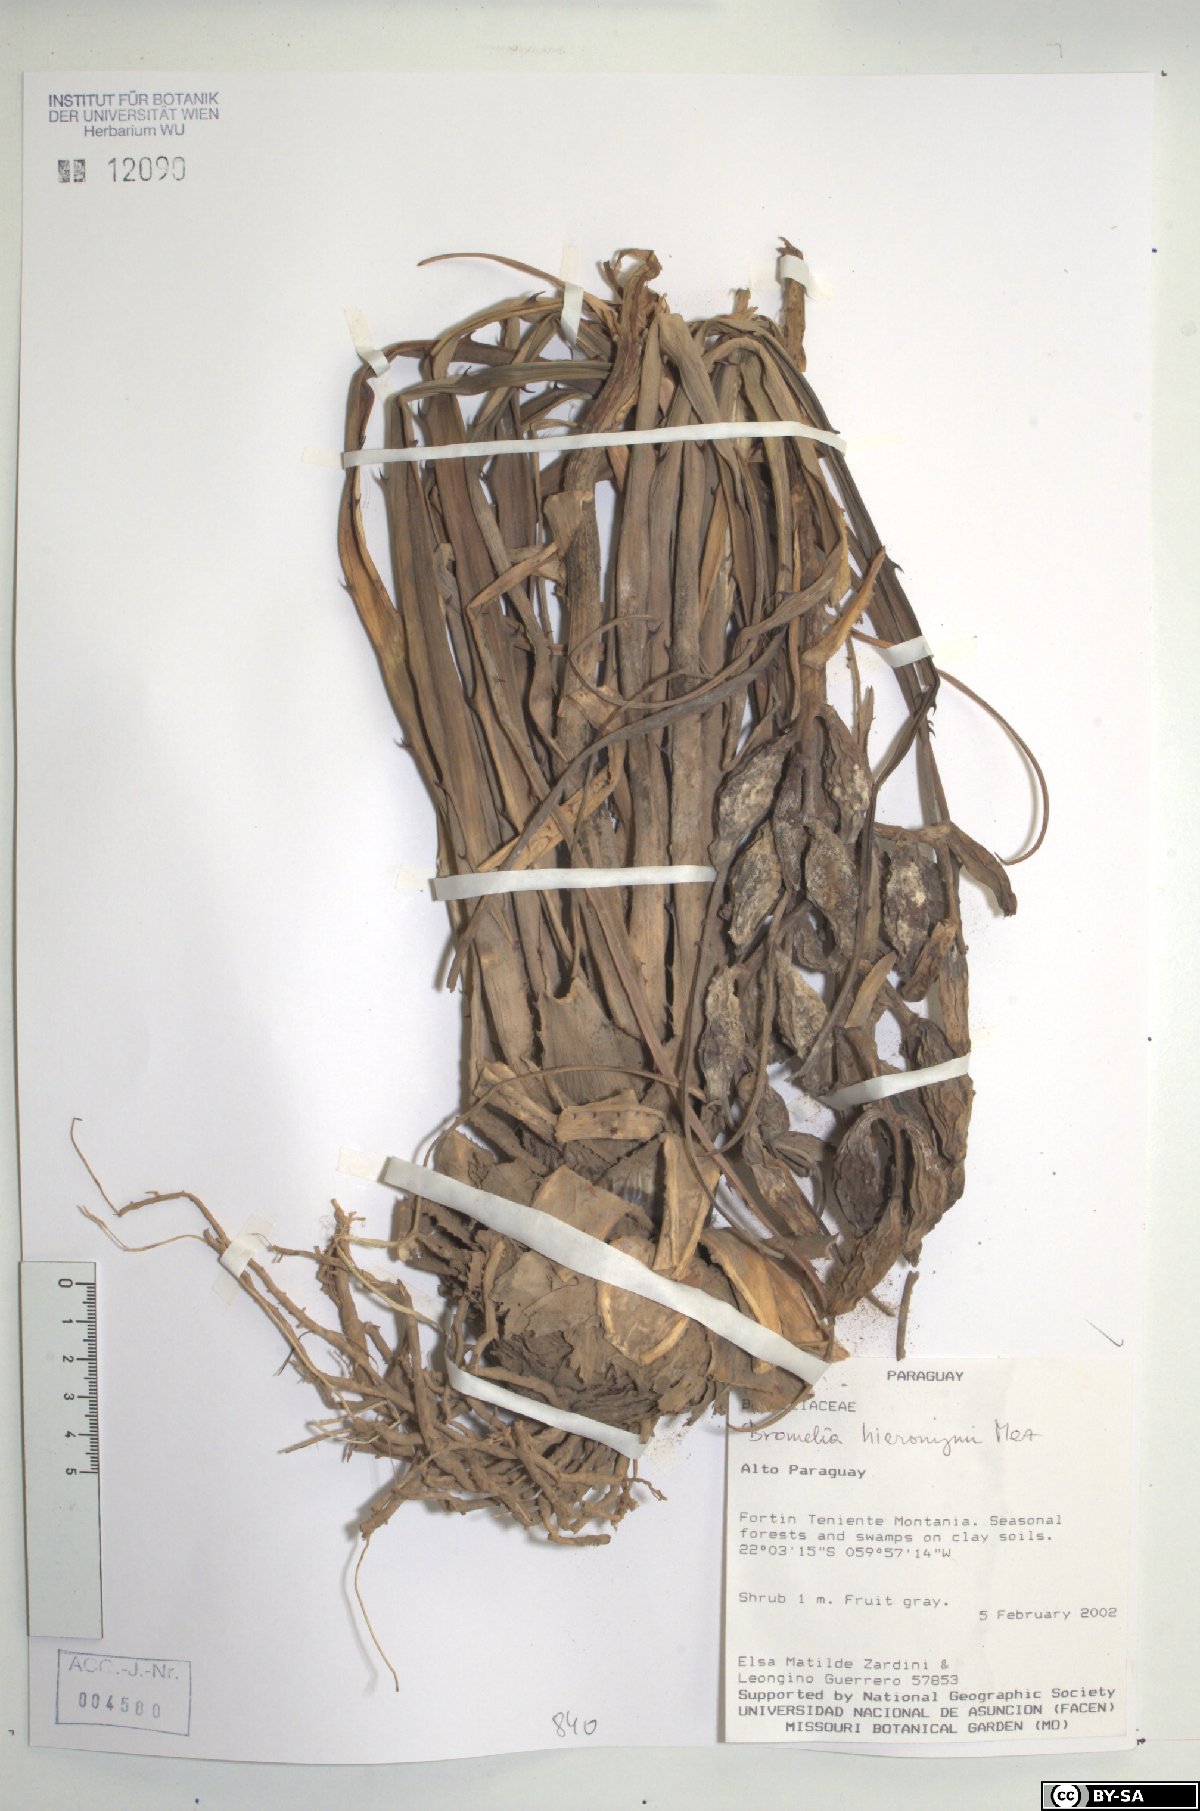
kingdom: Plantae
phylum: Tracheophyta
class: Liliopsida
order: Poales
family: Bromeliaceae
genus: Bromelia
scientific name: Bromelia hieronymi
